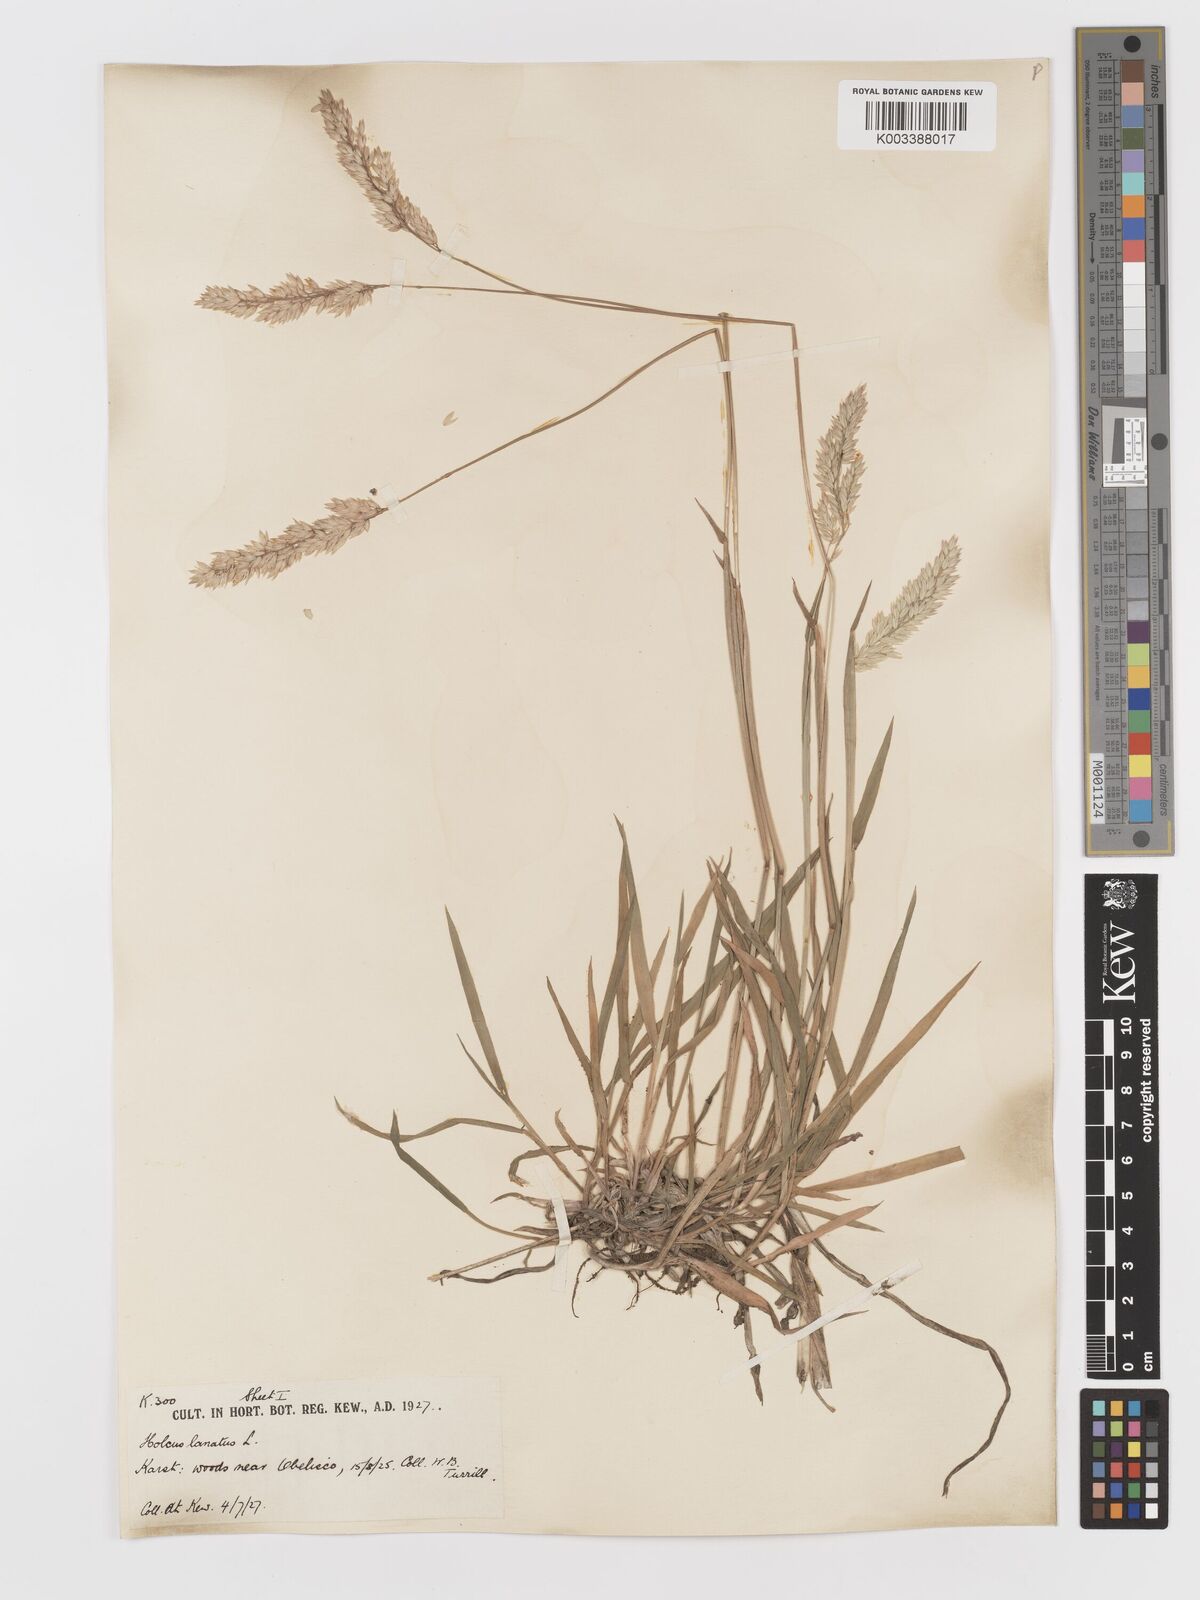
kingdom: Plantae
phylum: Tracheophyta
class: Liliopsida
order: Poales
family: Poaceae
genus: Holcus
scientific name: Holcus lanatus
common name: Yorkshire-fog
